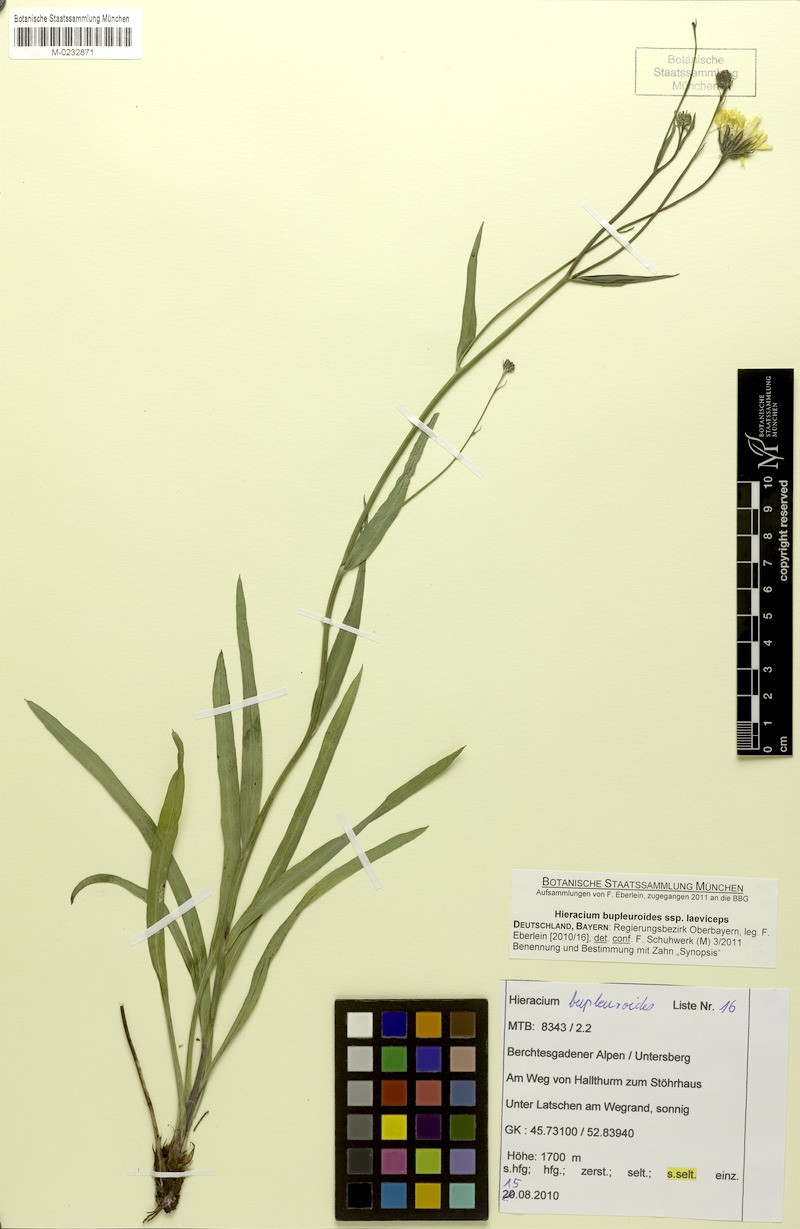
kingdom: Plantae
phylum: Tracheophyta
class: Magnoliopsida
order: Asterales
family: Asteraceae
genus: Hieracium
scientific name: Hieracium bupleuroides
